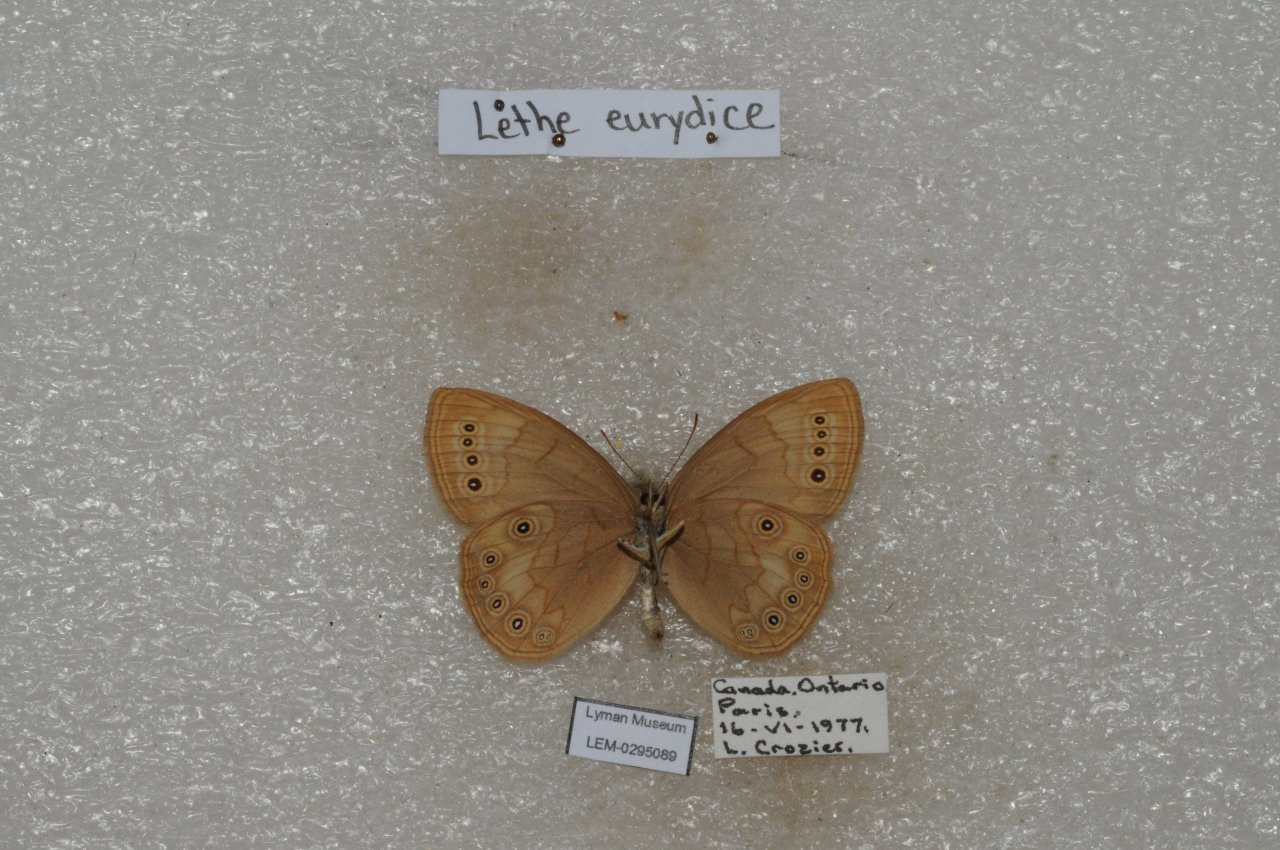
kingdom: Animalia
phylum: Arthropoda
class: Insecta
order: Lepidoptera
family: Nymphalidae
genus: Lethe
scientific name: Lethe eurydice
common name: Eyed Brown
